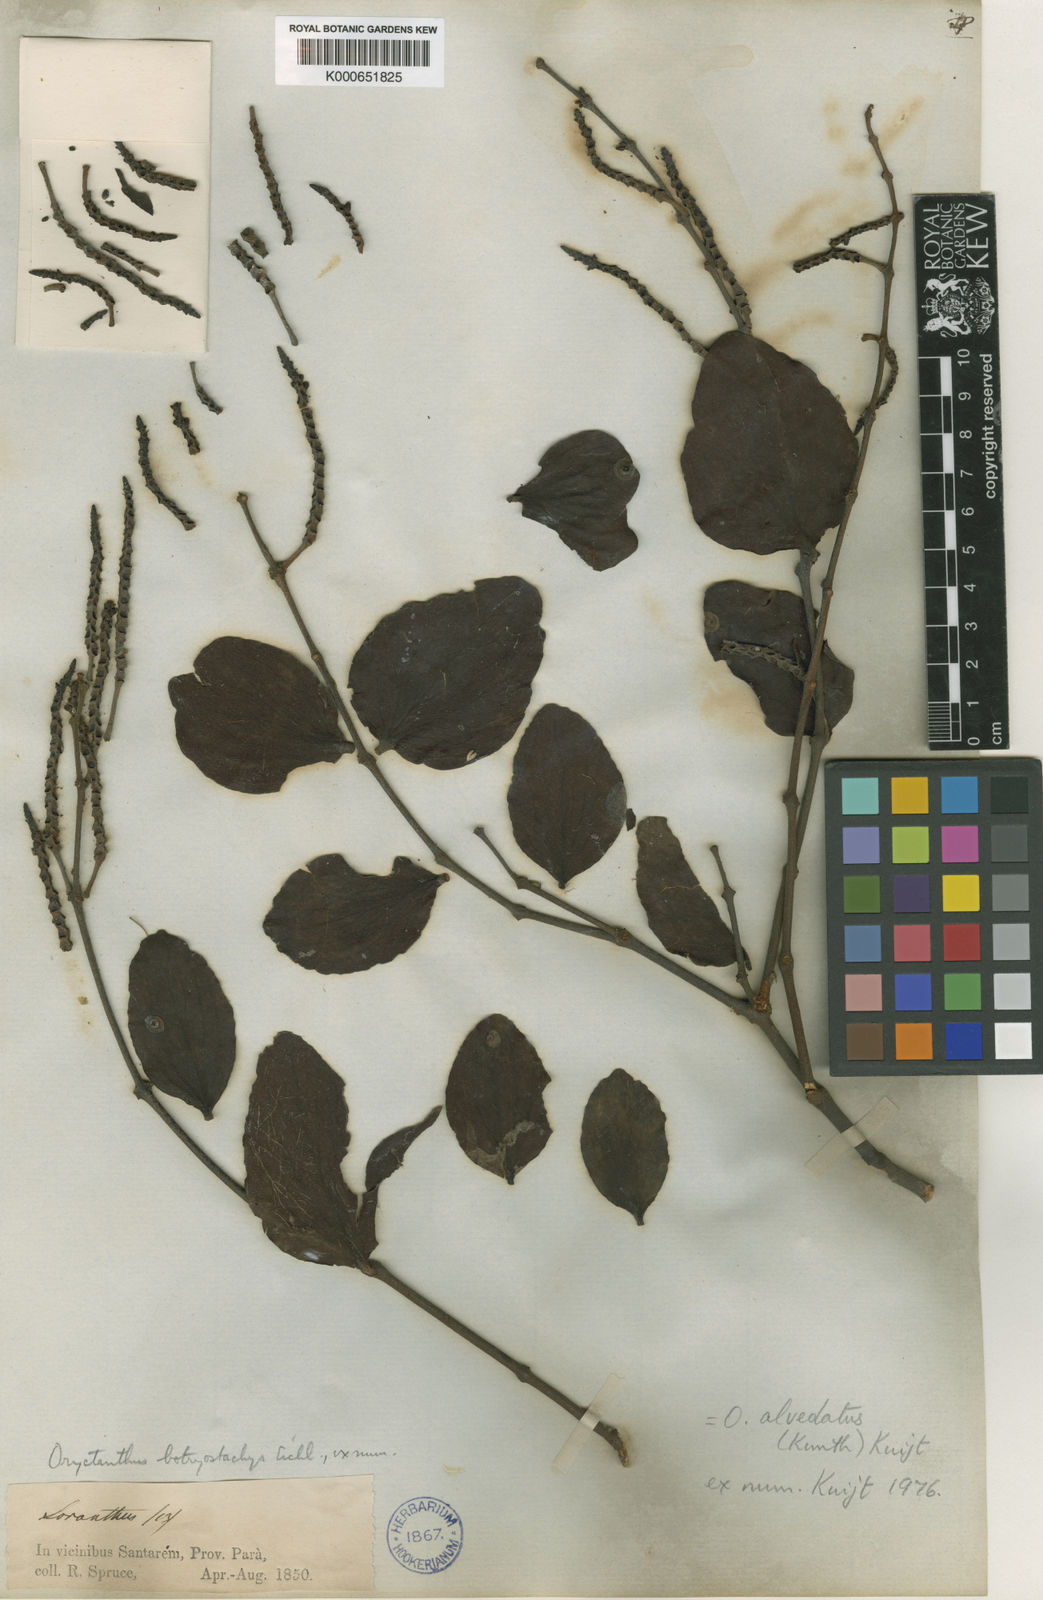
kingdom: Plantae
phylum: Tracheophyta
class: Magnoliopsida
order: Santalales
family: Loranthaceae
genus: Oryctanthus
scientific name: Oryctanthus alveolatus
